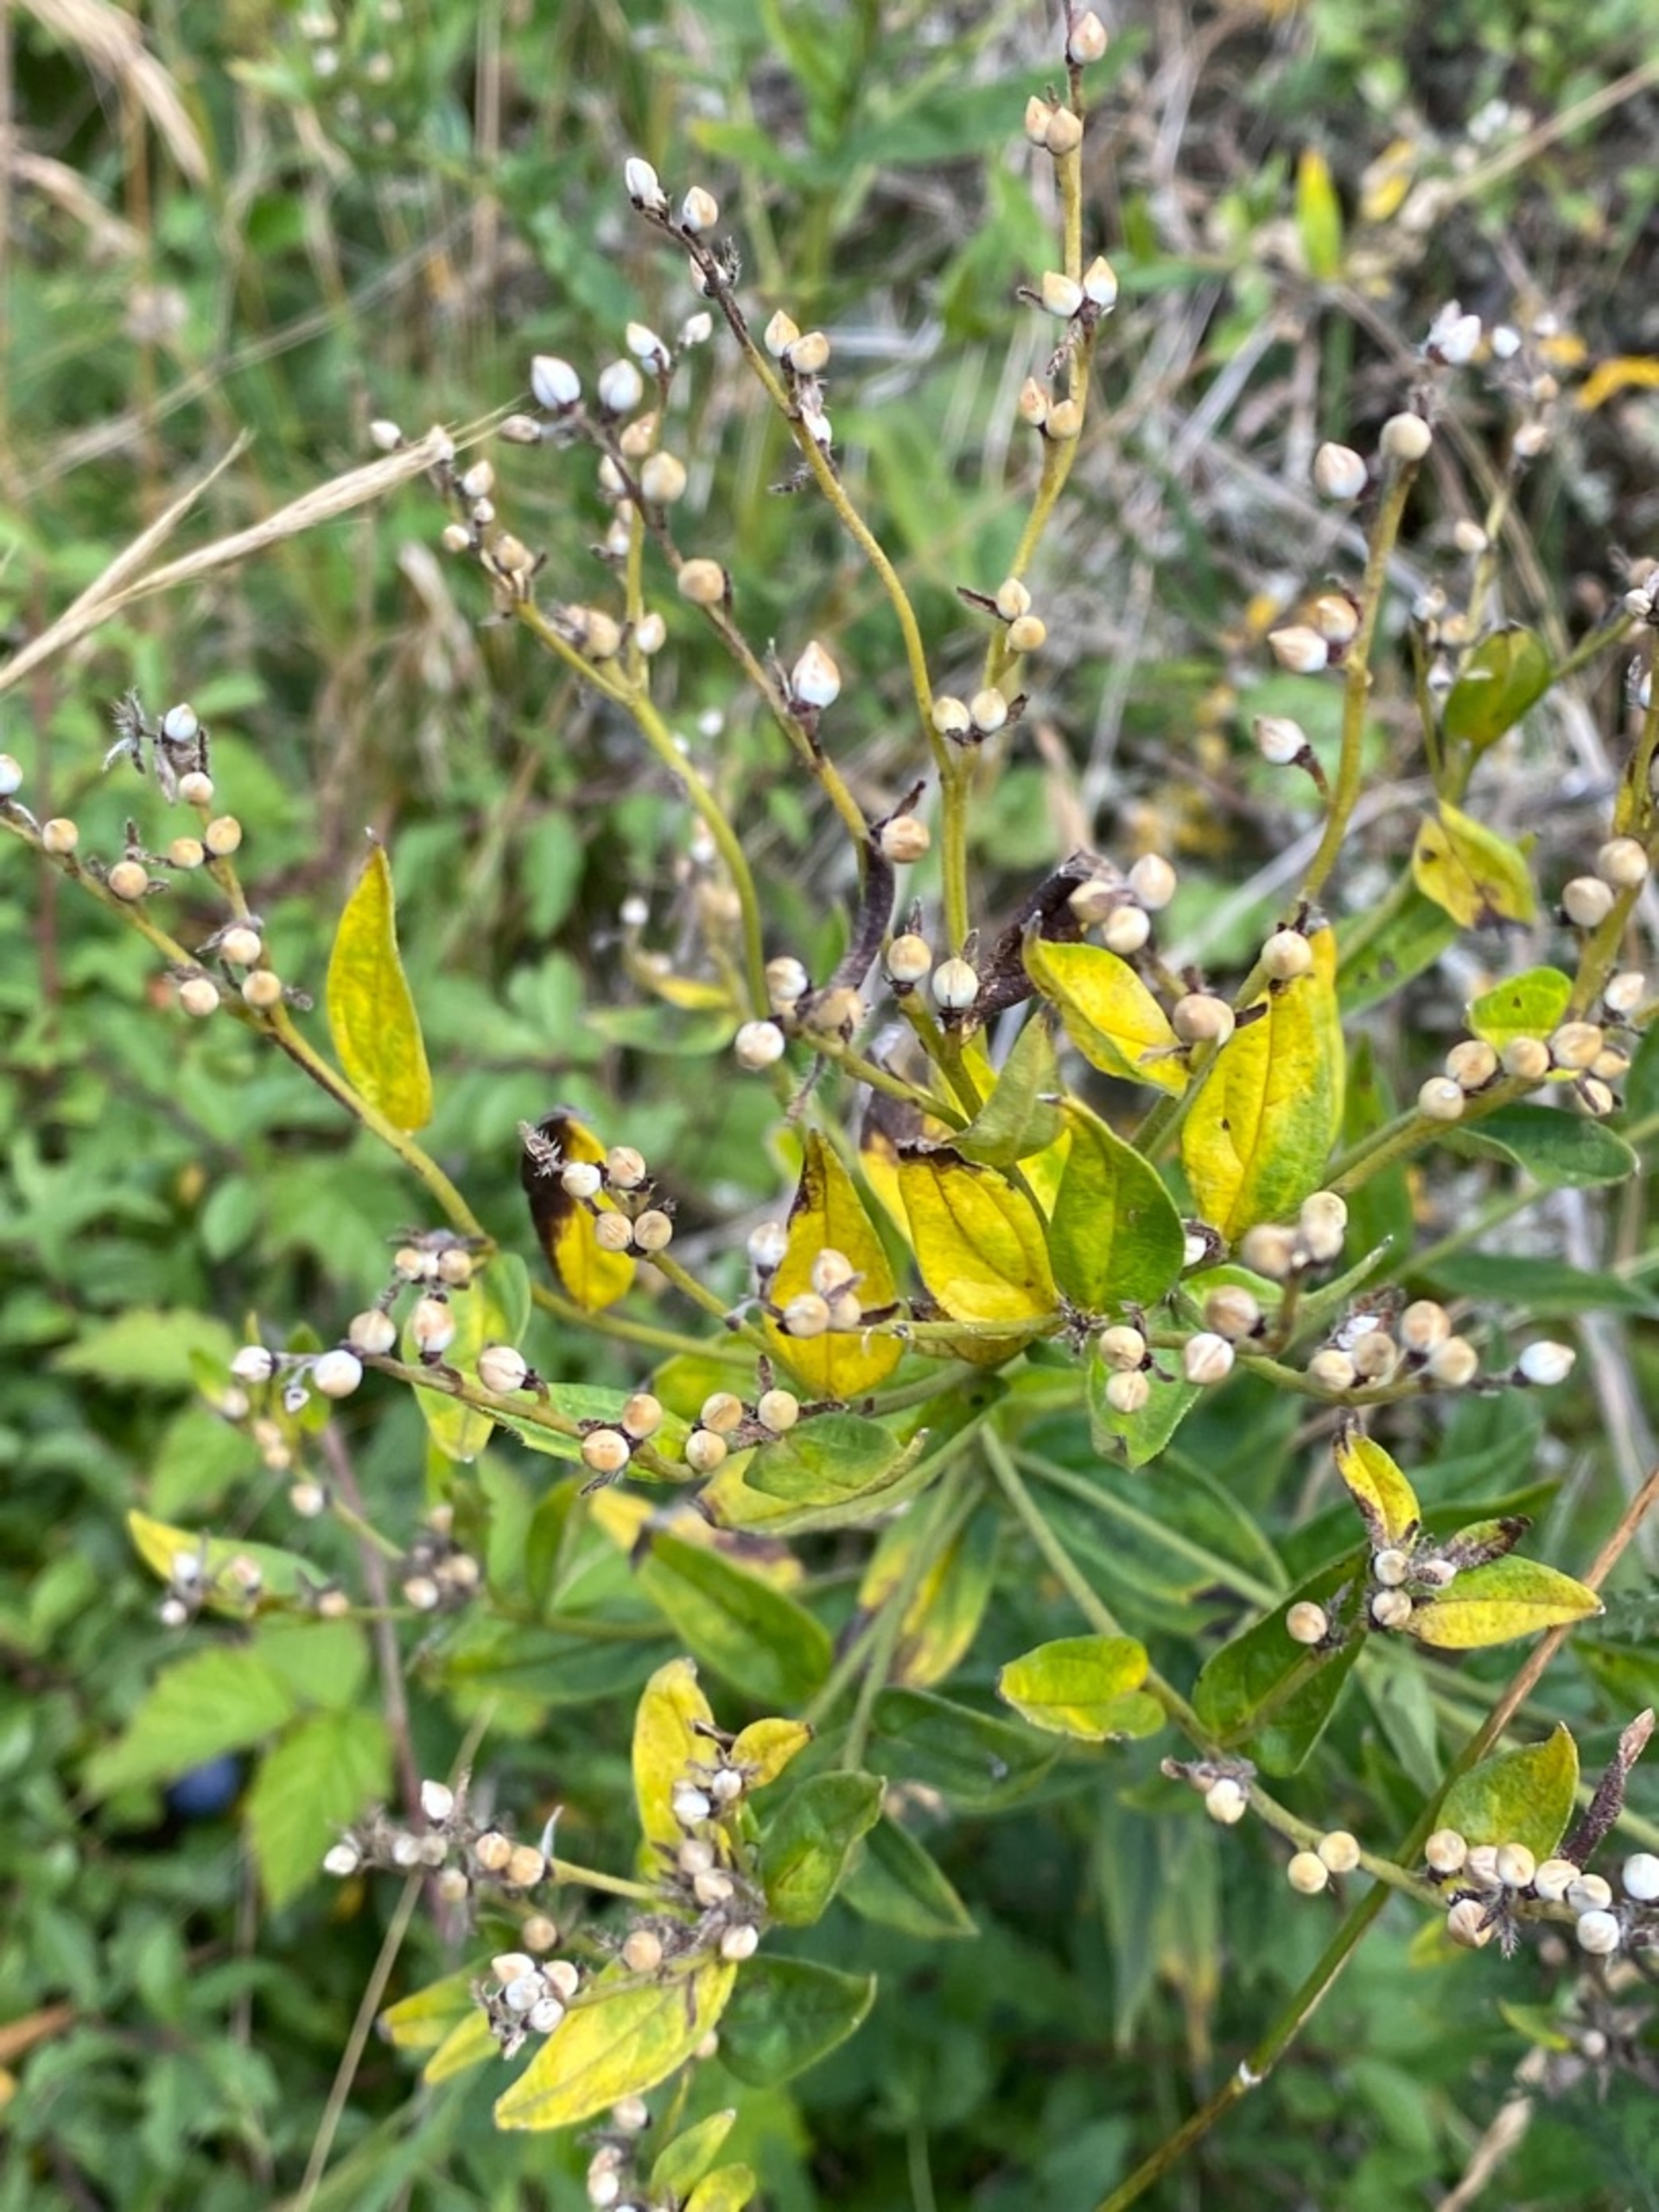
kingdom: Plantae
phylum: Tracheophyta
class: Magnoliopsida
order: Boraginales
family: Boraginaceae
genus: Lithospermum
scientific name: Lithospermum officinale
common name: Læge-stenfrø
